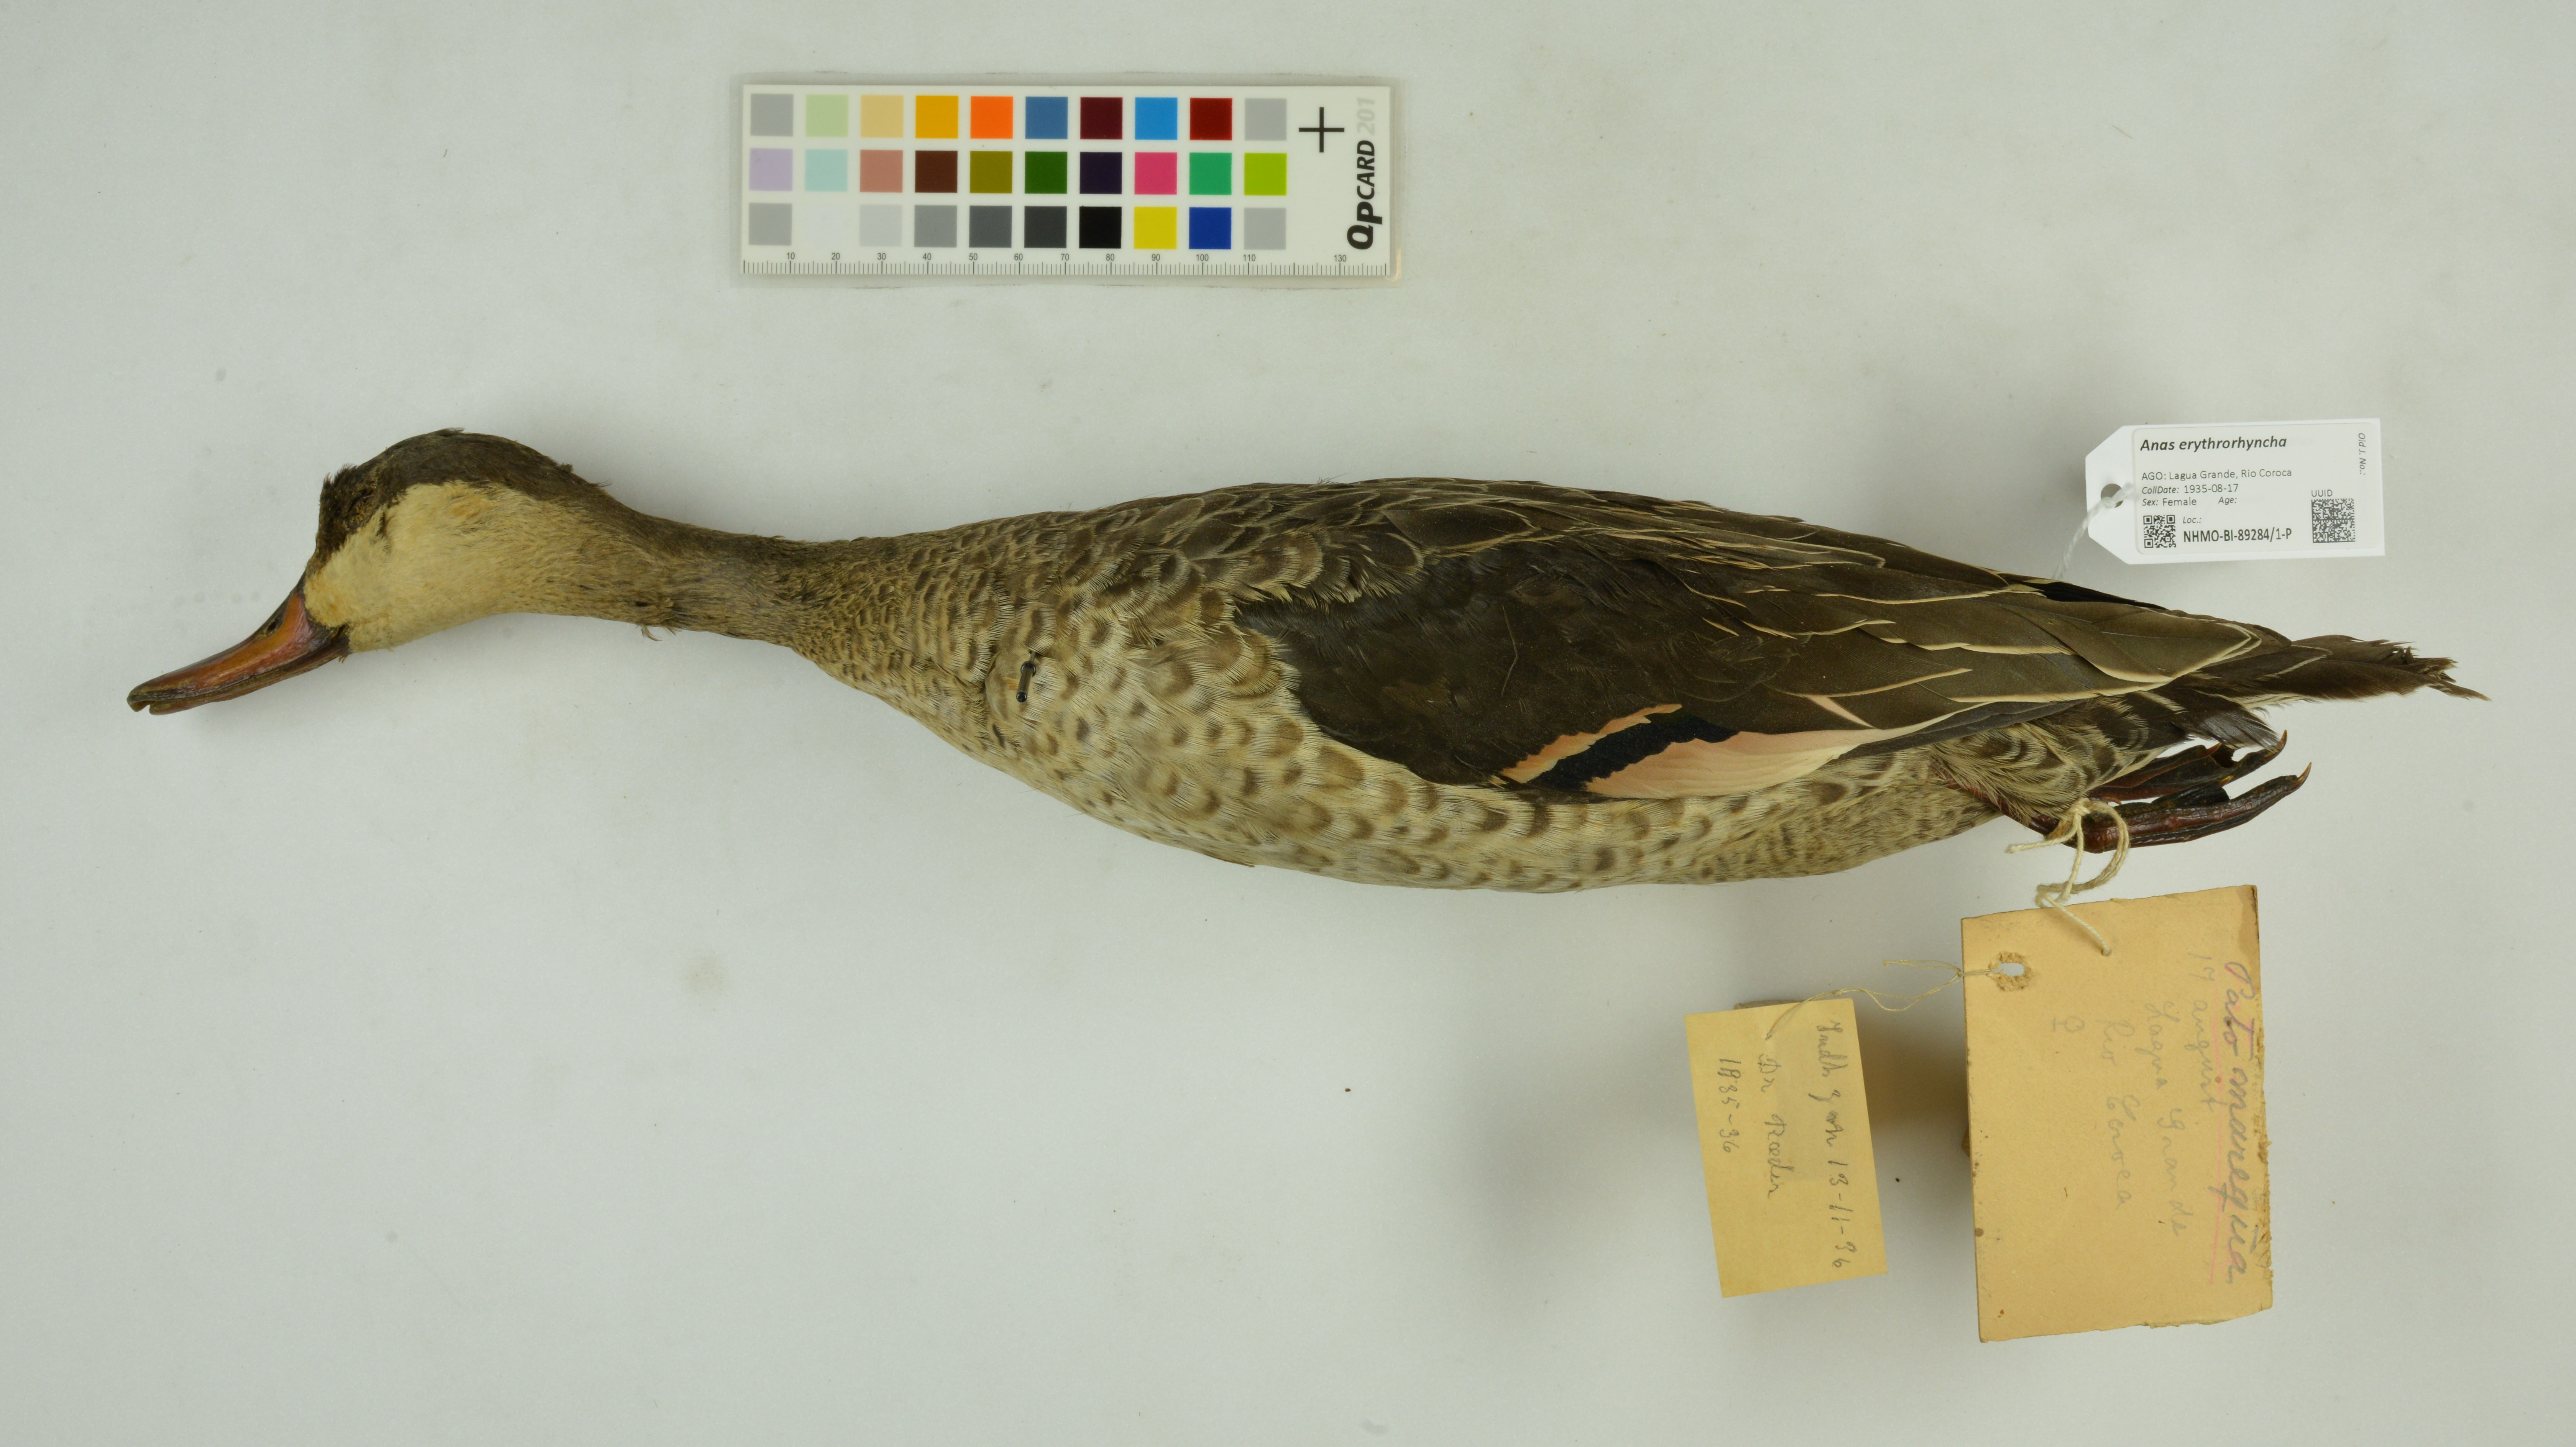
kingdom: Animalia
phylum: Chordata
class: Aves
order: Anseriformes
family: Anatidae
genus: Anas
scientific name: Anas erythrorhyncha
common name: Red-billed teal
